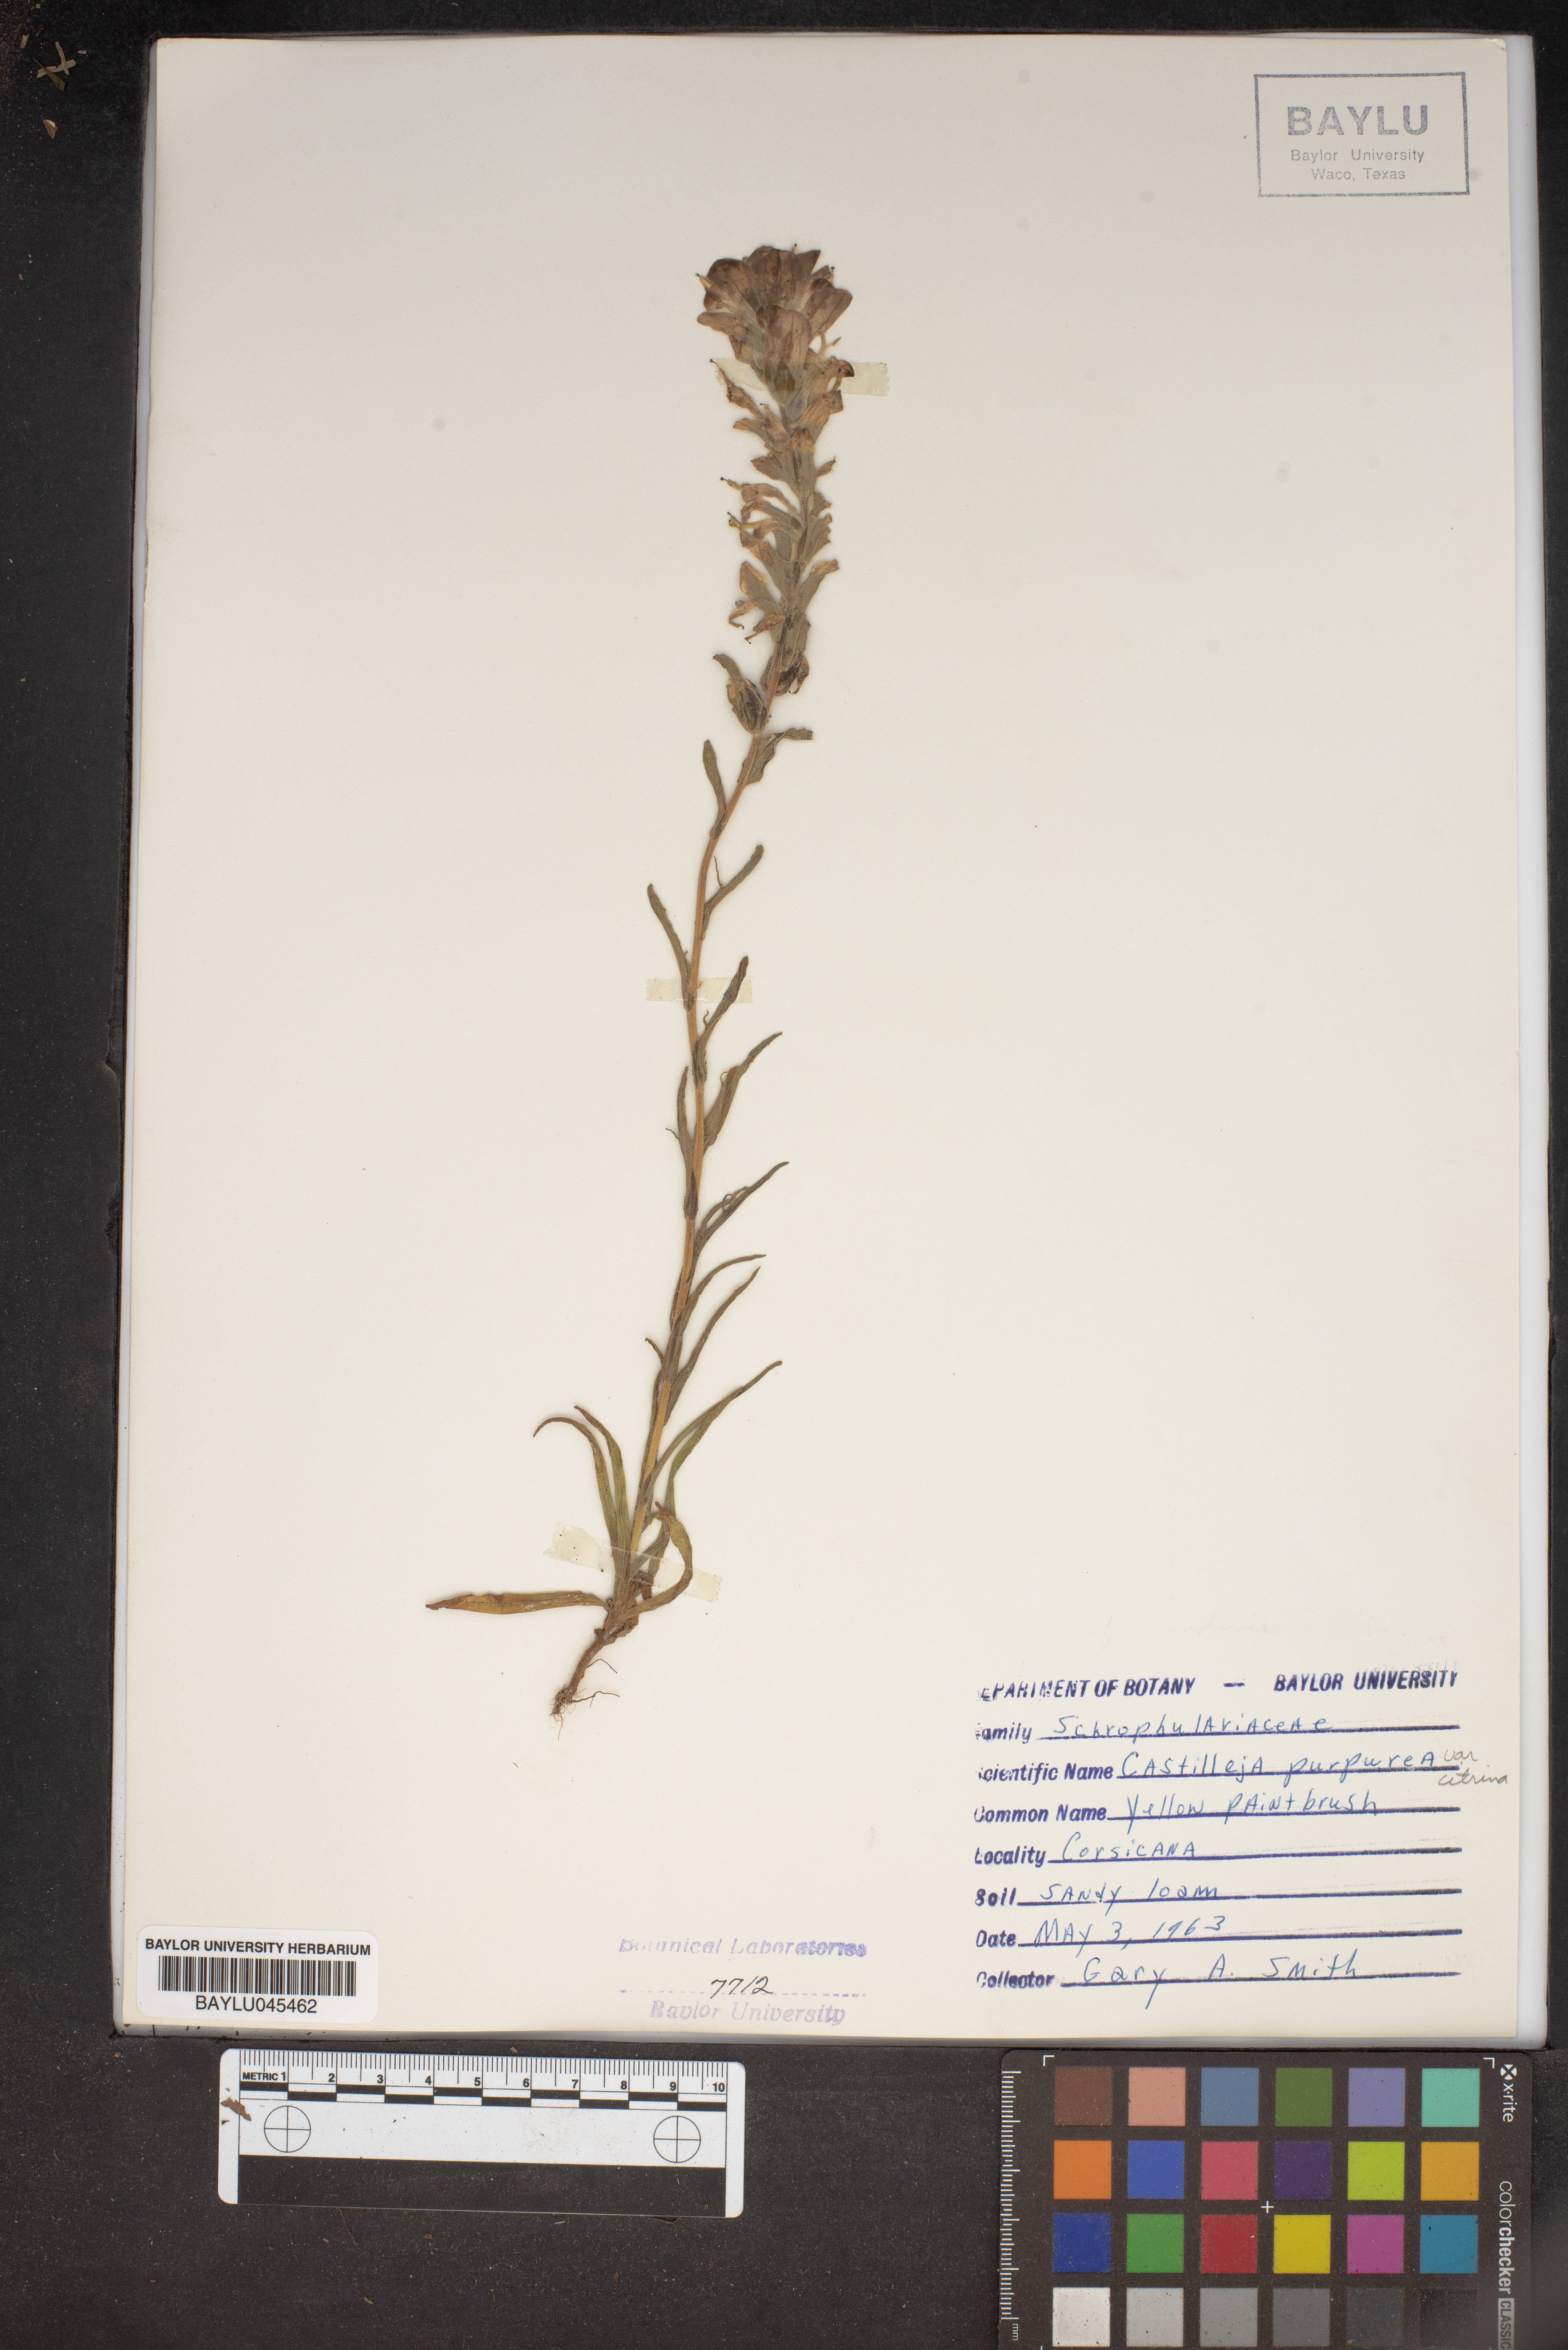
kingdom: Plantae
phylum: Tracheophyta
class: Magnoliopsida
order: Lamiales
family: Orobanchaceae
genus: Castilleja
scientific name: Castilleja purpurea
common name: Plains paintbrush
